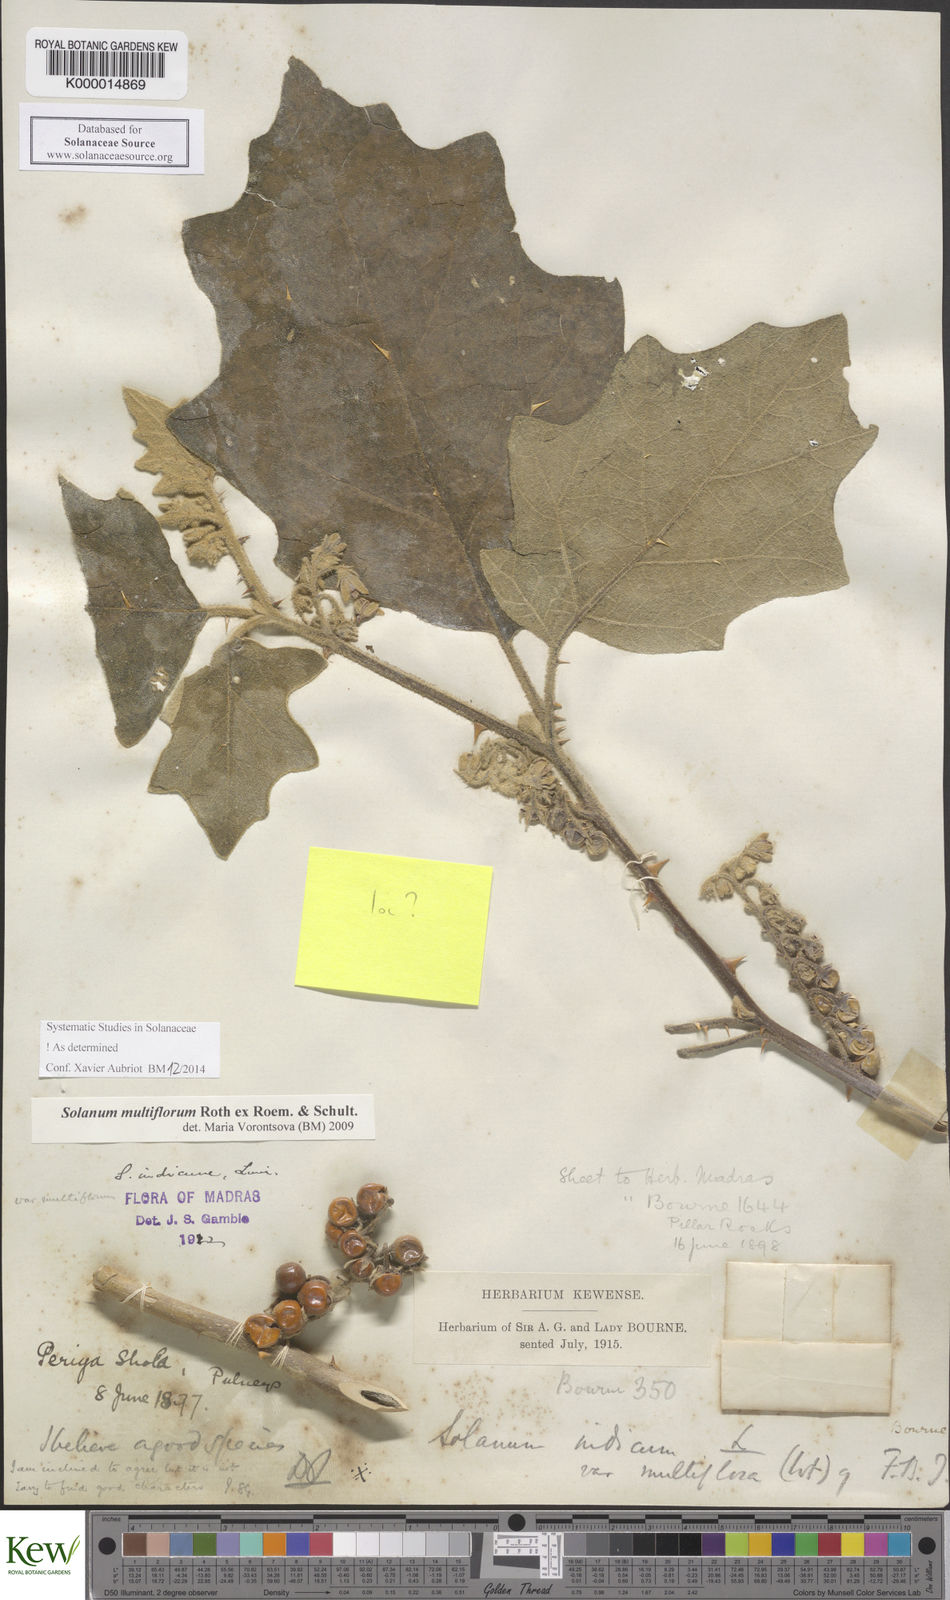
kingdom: Plantae
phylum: Tracheophyta
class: Magnoliopsida
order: Solanales
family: Solanaceae
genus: Solanum
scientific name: Solanum multiflorum
